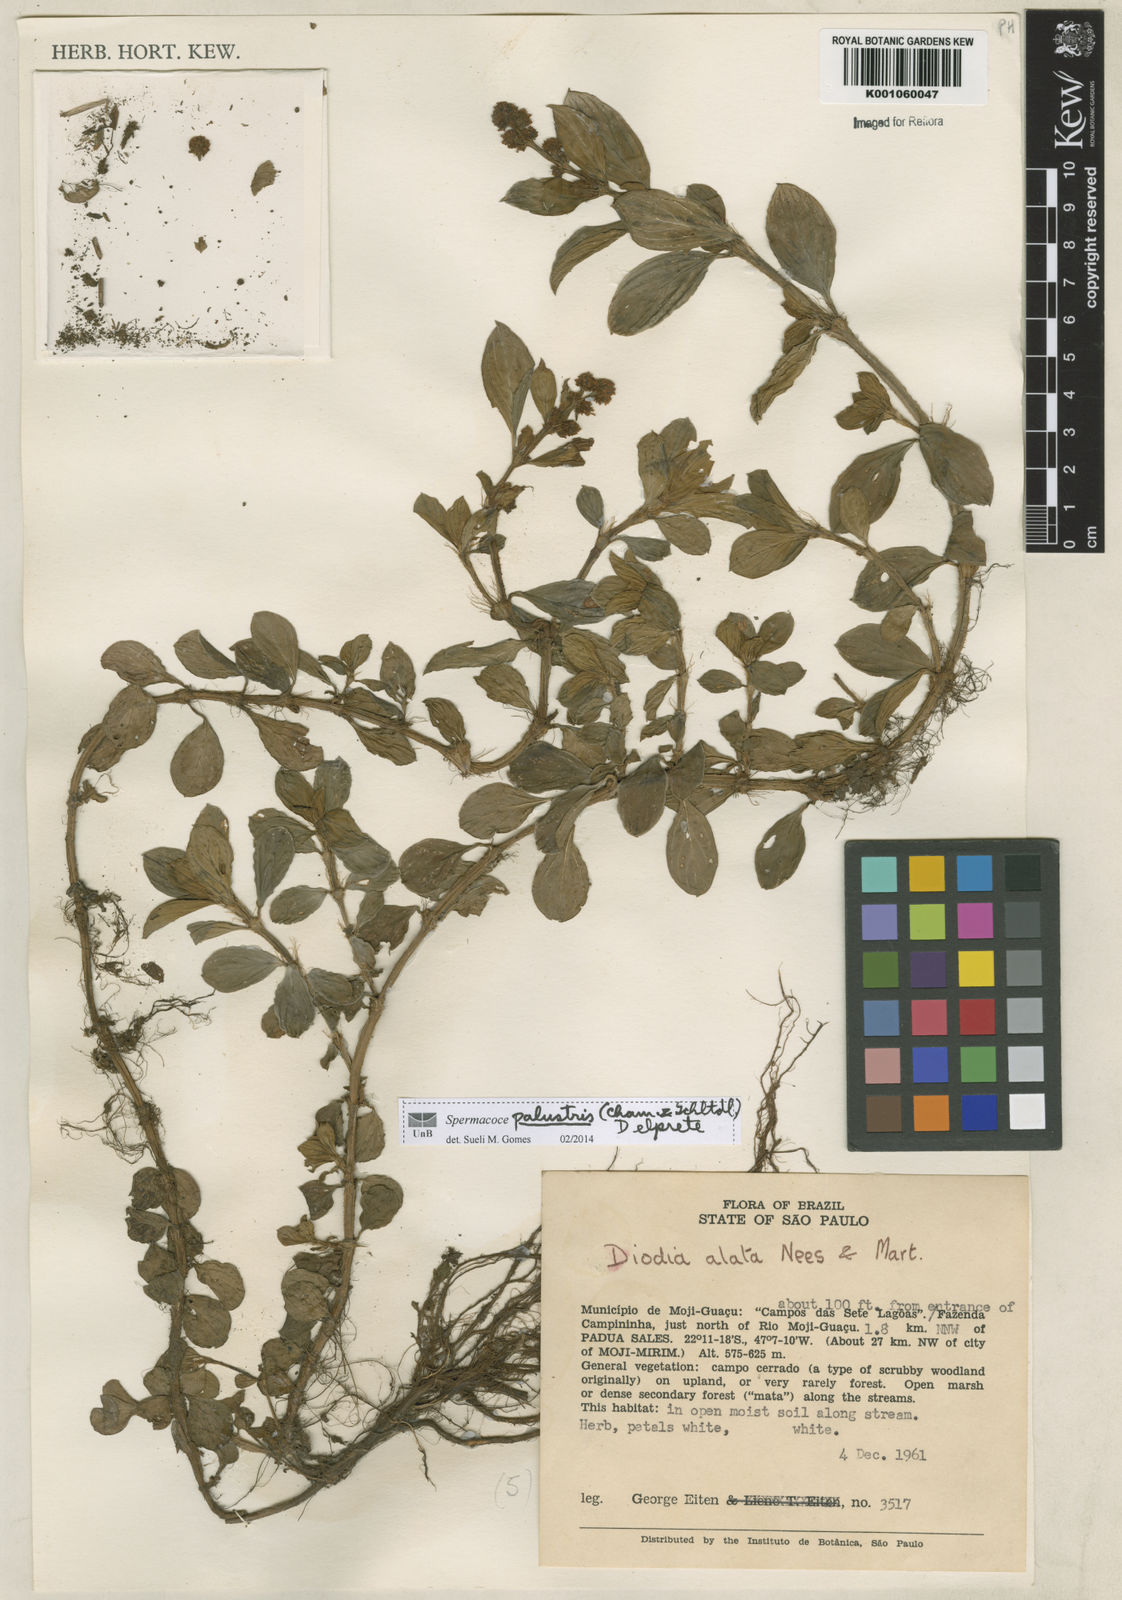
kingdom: Plantae
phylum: Tracheophyta
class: Magnoliopsida
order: Gentianales
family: Rubiaceae
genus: Galianthe
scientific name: Galianthe palustris
